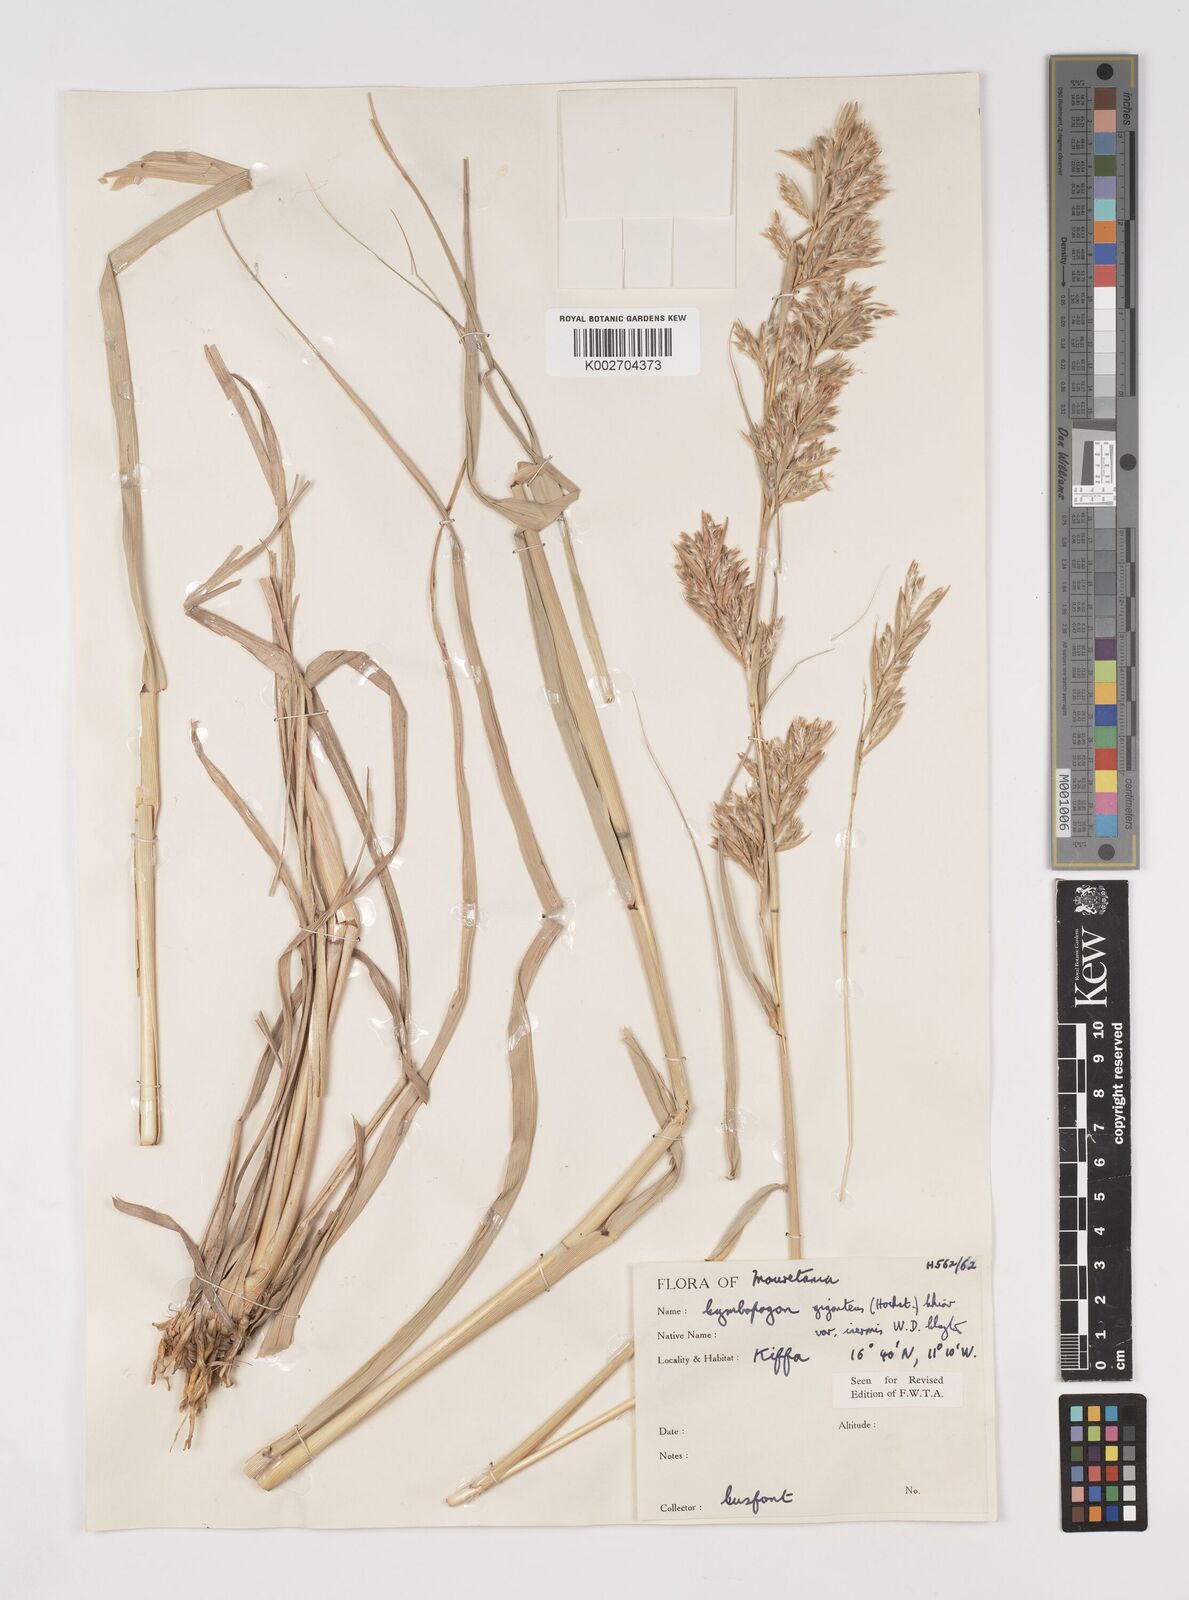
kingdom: Plantae
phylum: Tracheophyta
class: Liliopsida
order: Poales
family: Poaceae
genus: Cymbopogon
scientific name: Cymbopogon giganteus
